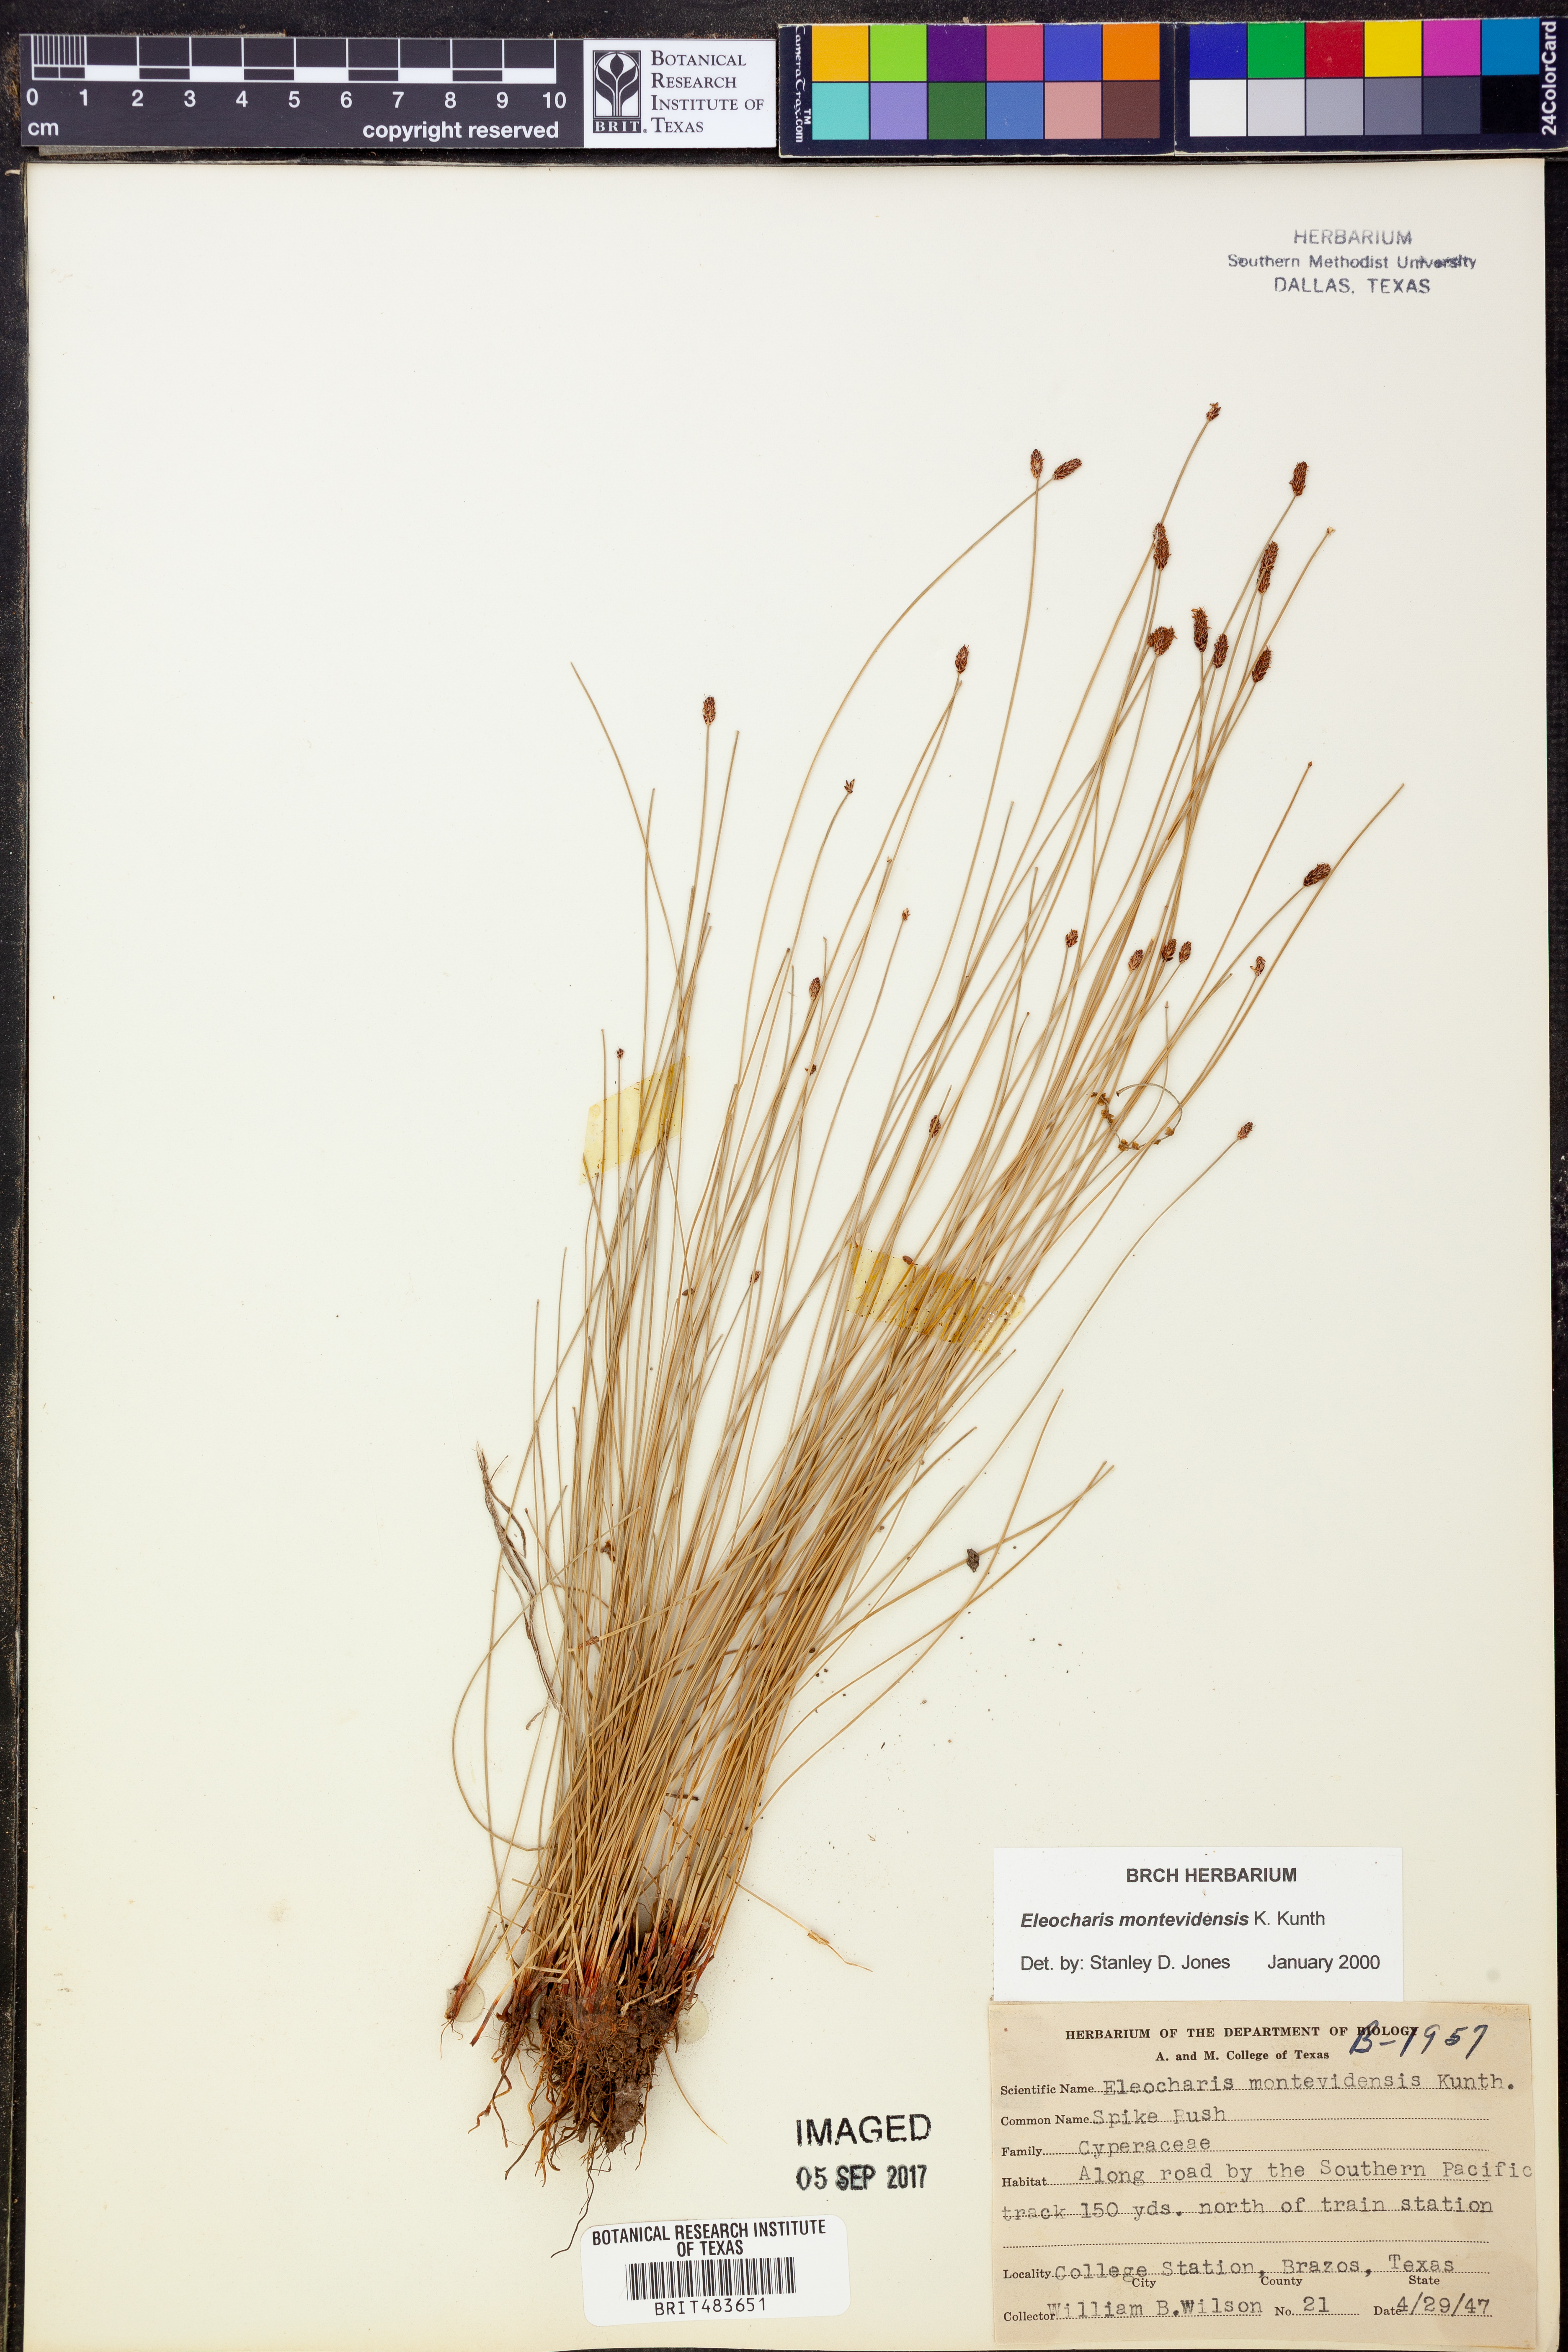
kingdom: Plantae
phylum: Tracheophyta
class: Liliopsida
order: Poales
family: Cyperaceae
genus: Eleocharis
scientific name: Eleocharis montevidensis
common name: Sand spike-rush
